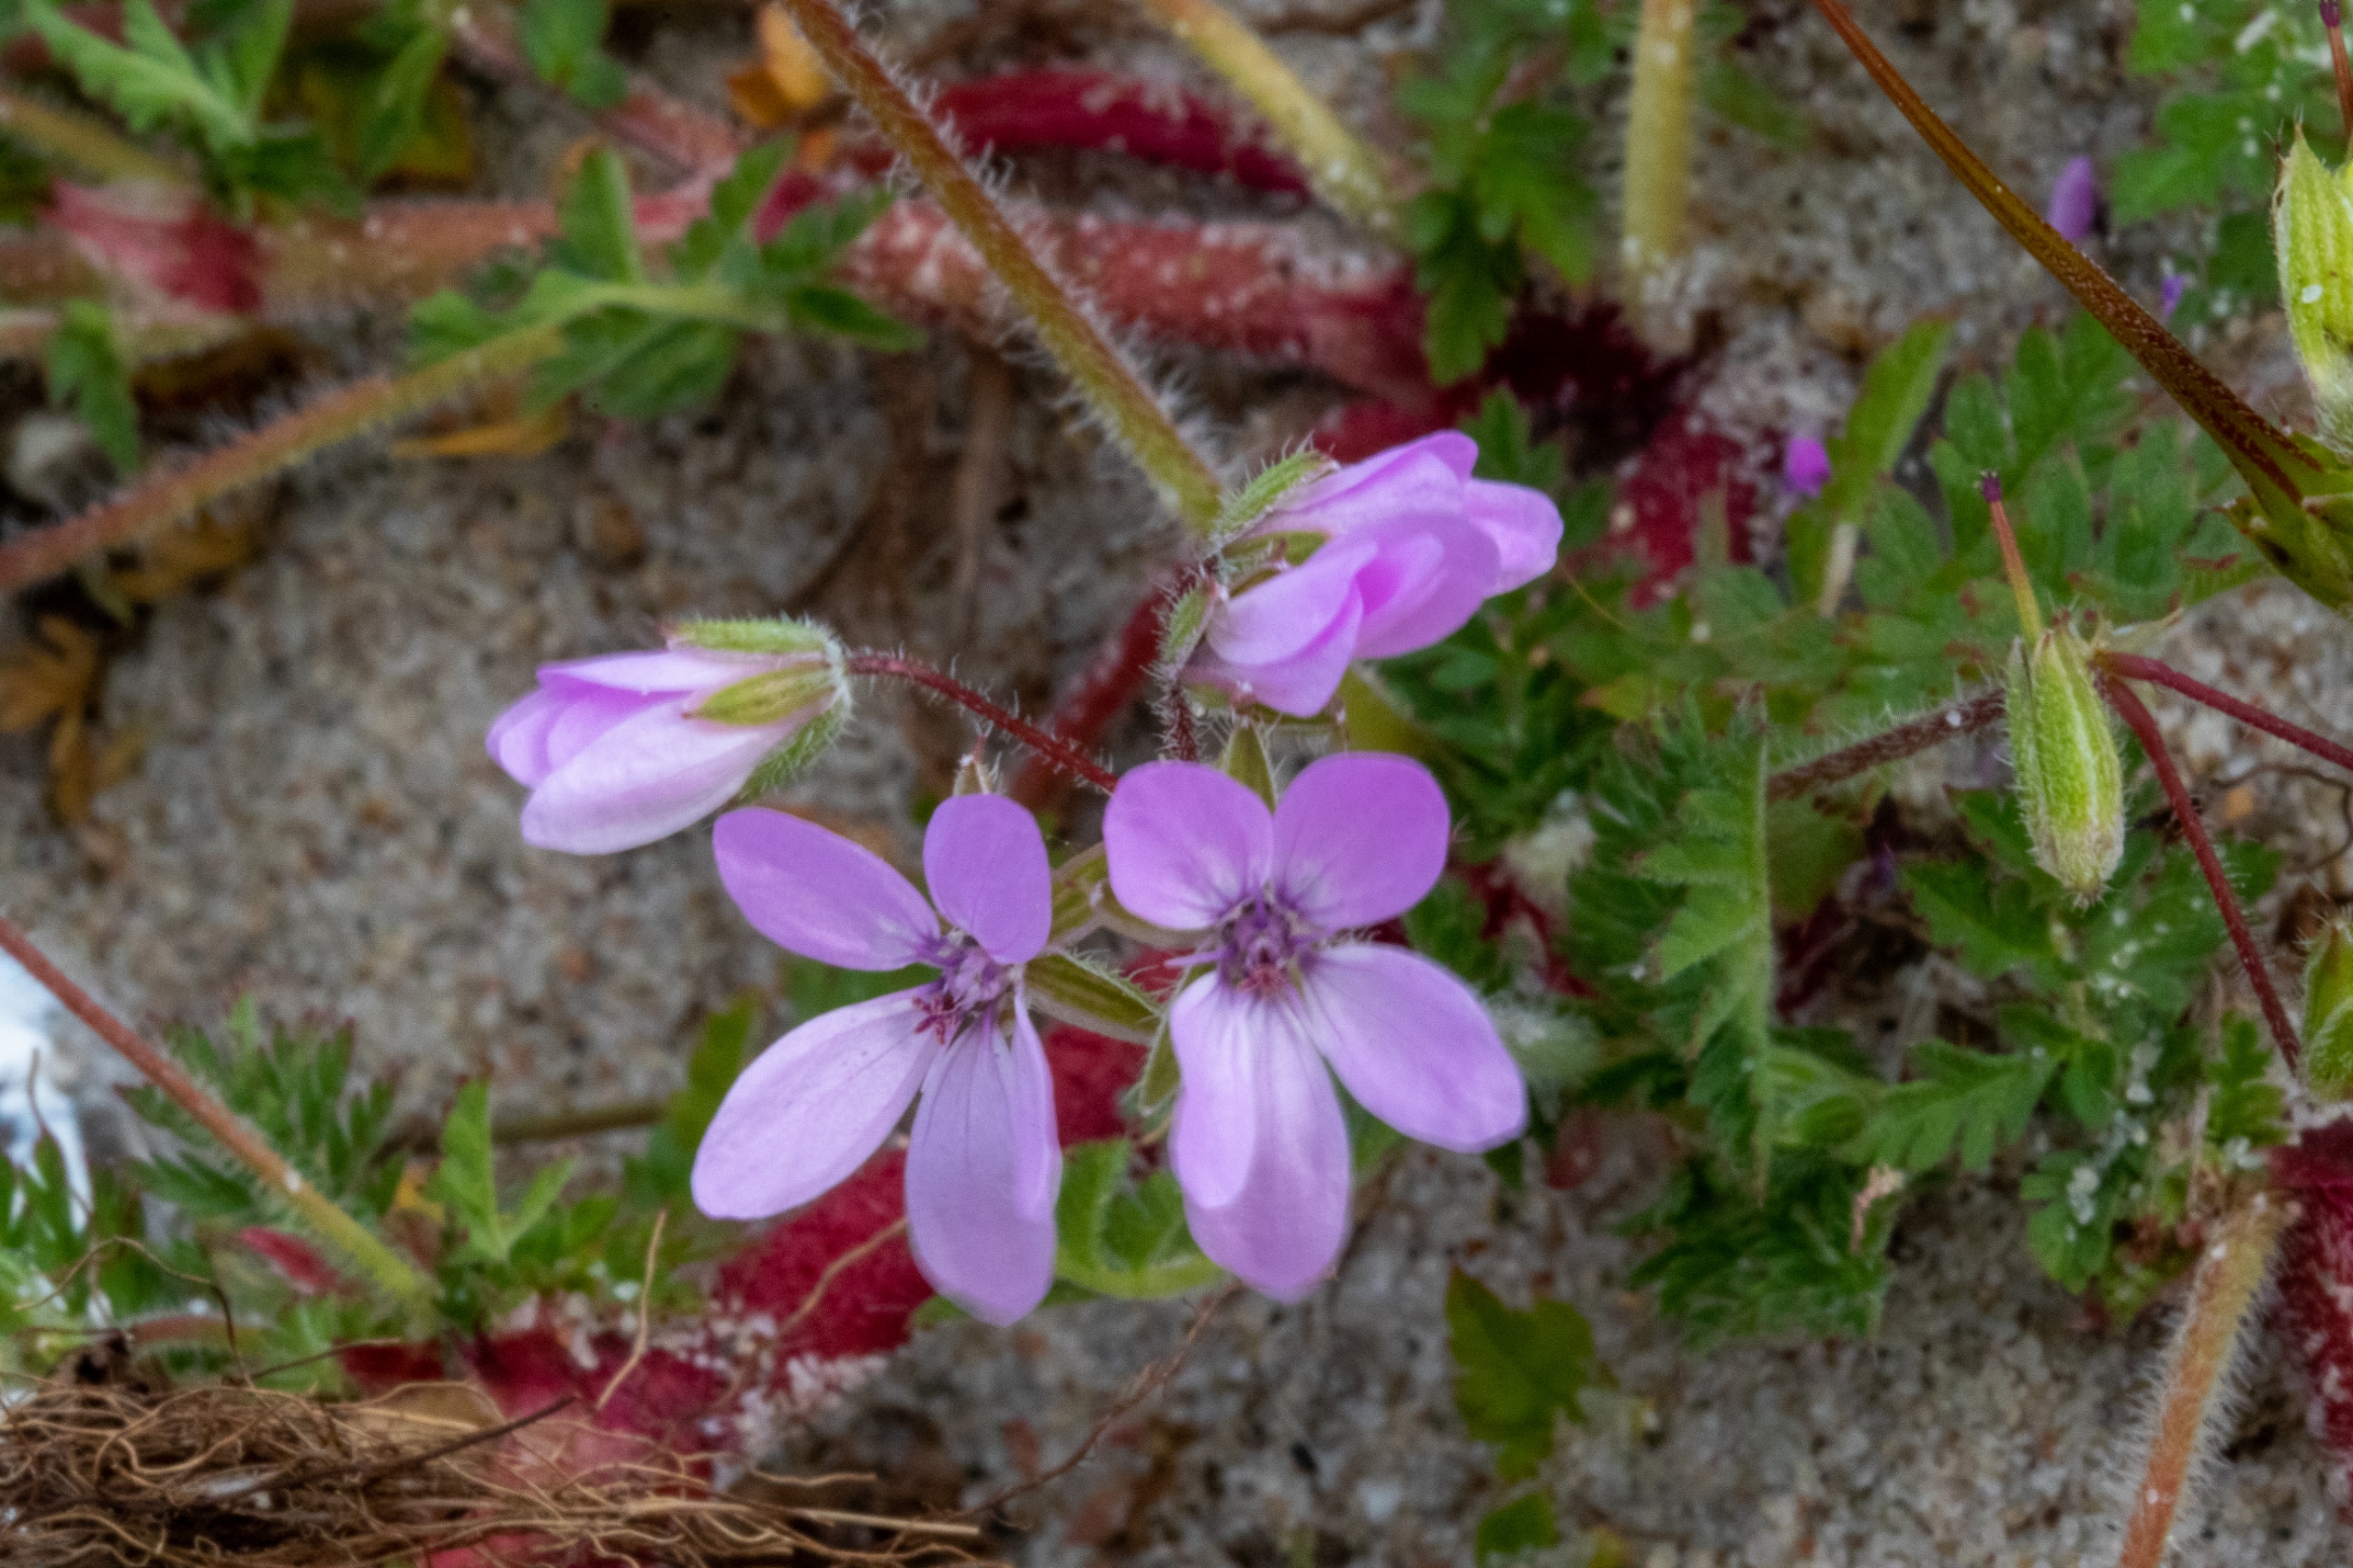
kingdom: Plantae
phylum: Tracheophyta
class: Magnoliopsida
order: Geraniales
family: Geraniaceae
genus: Erodium
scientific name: Erodium cicutarium
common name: Hejrenæb
